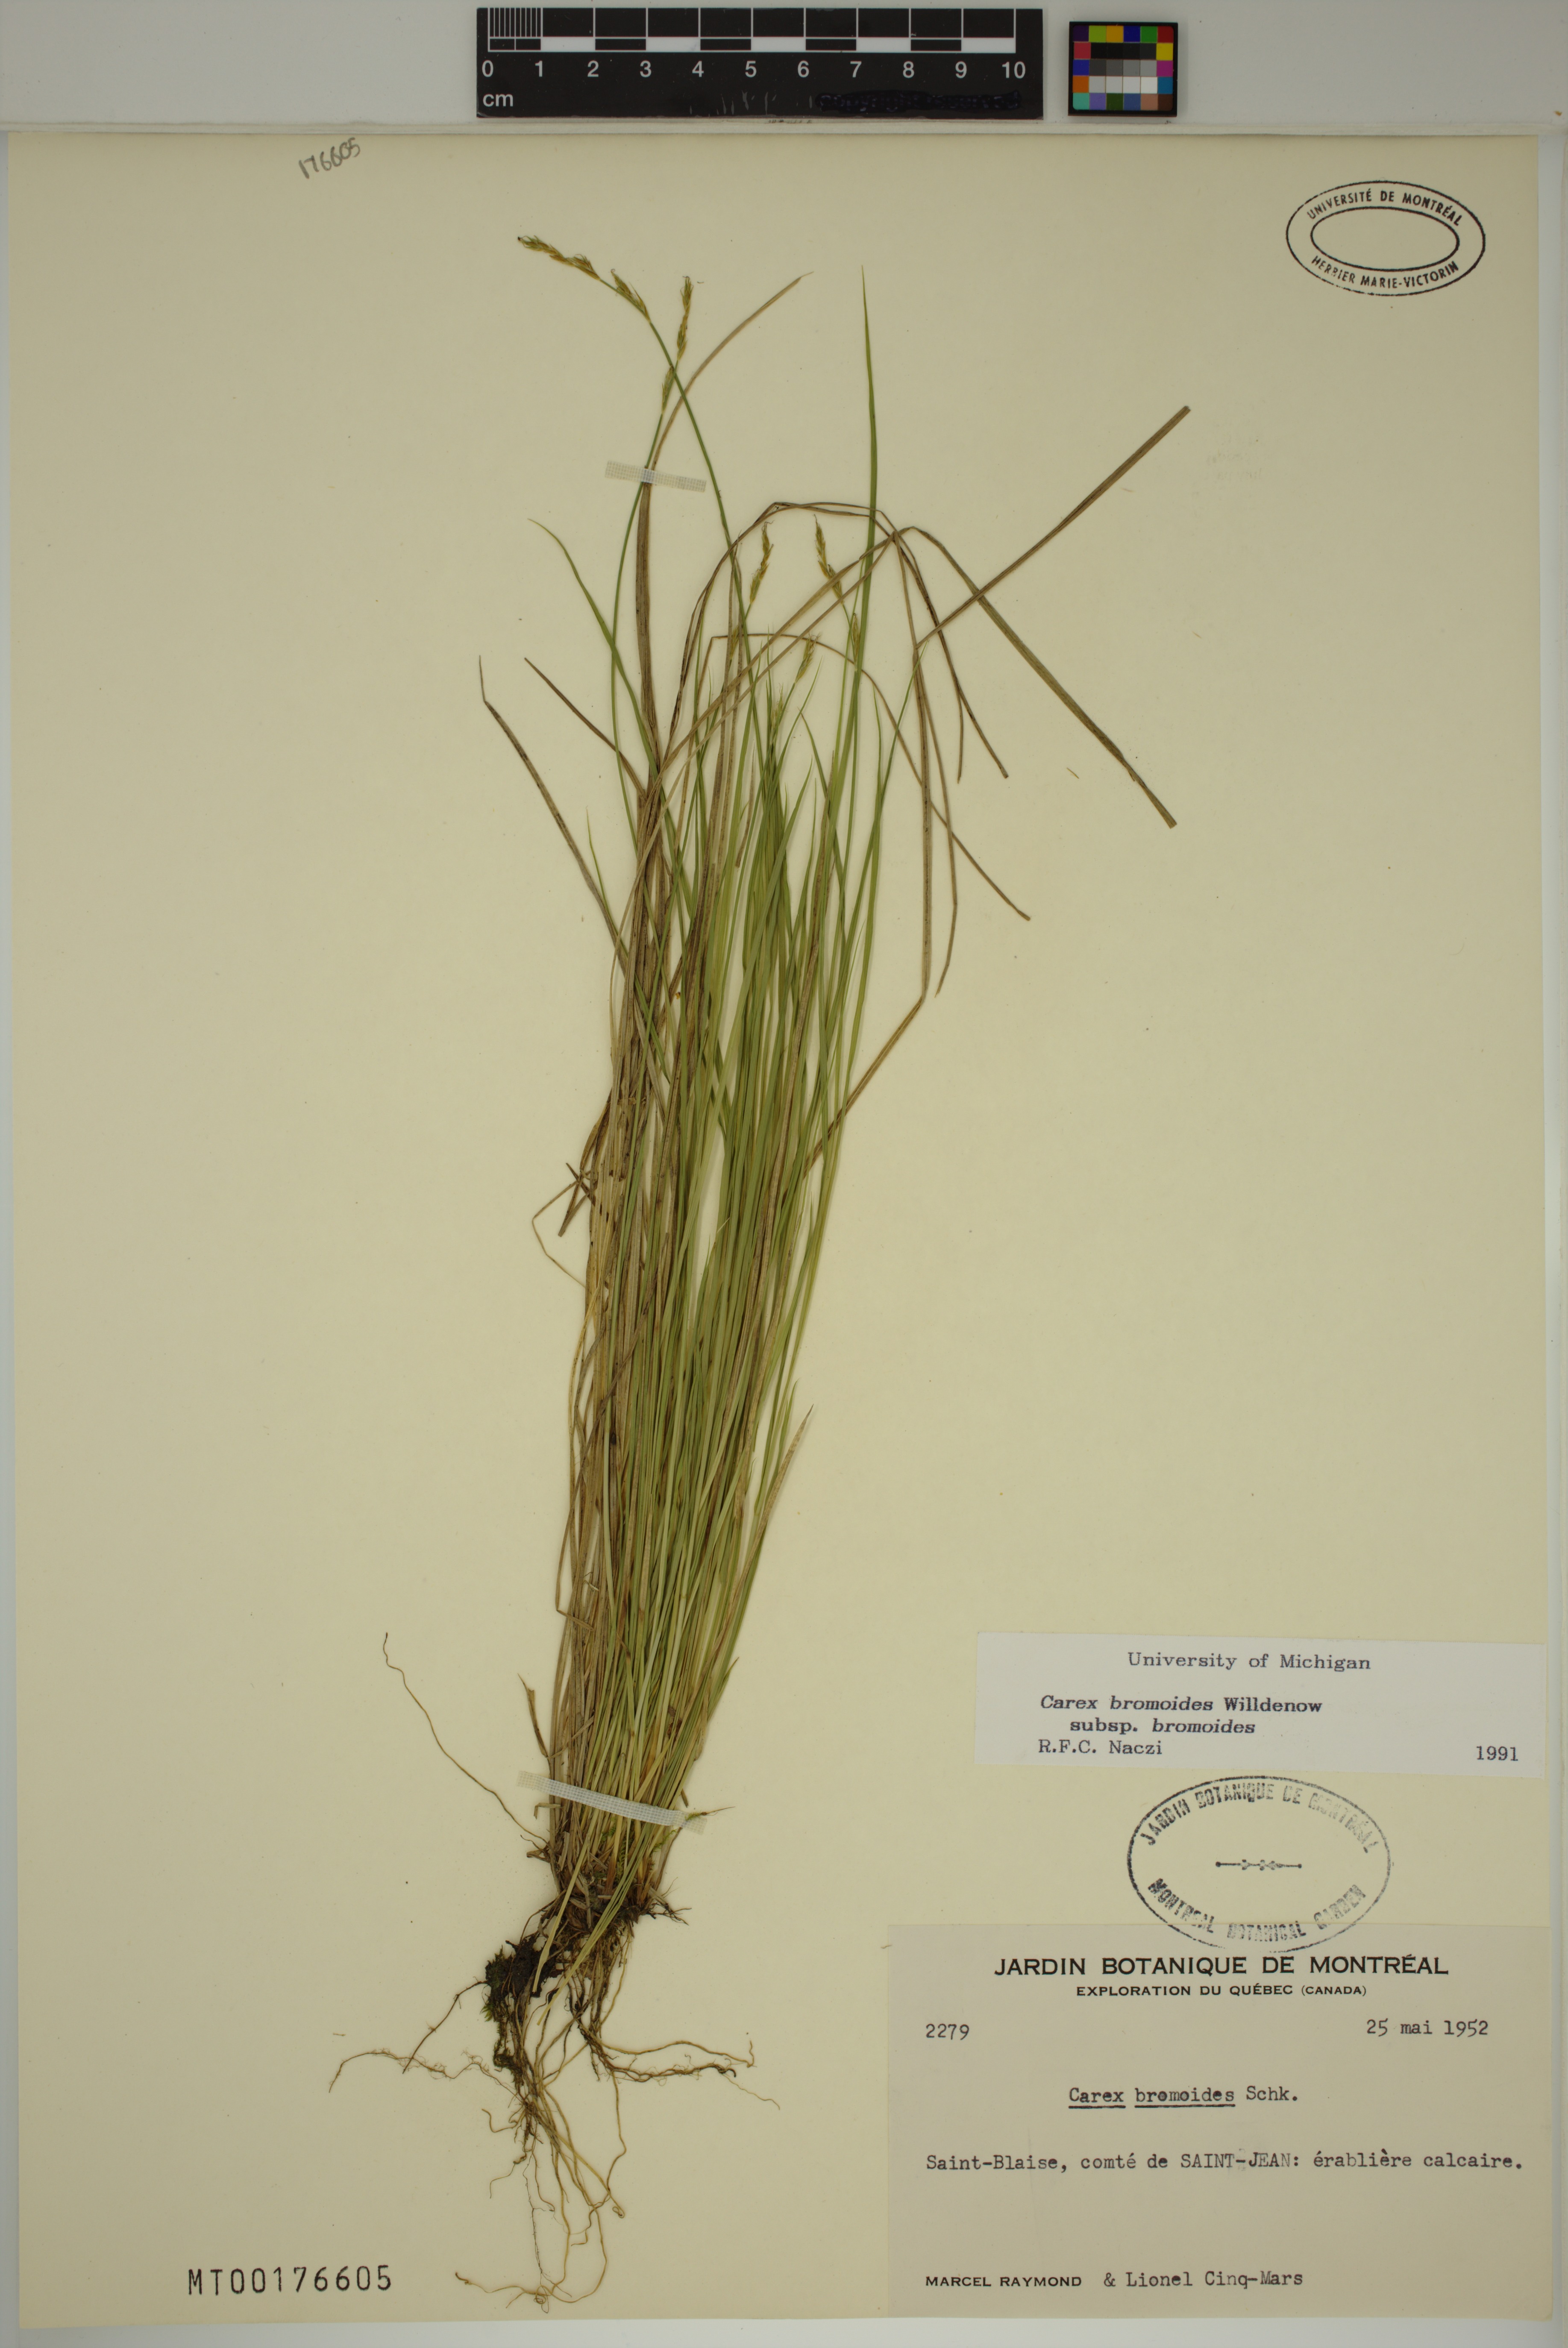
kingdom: Plantae
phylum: Tracheophyta
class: Liliopsida
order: Poales
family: Cyperaceae
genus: Carex
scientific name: Carex bromoides
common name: Brome hummock sedge
